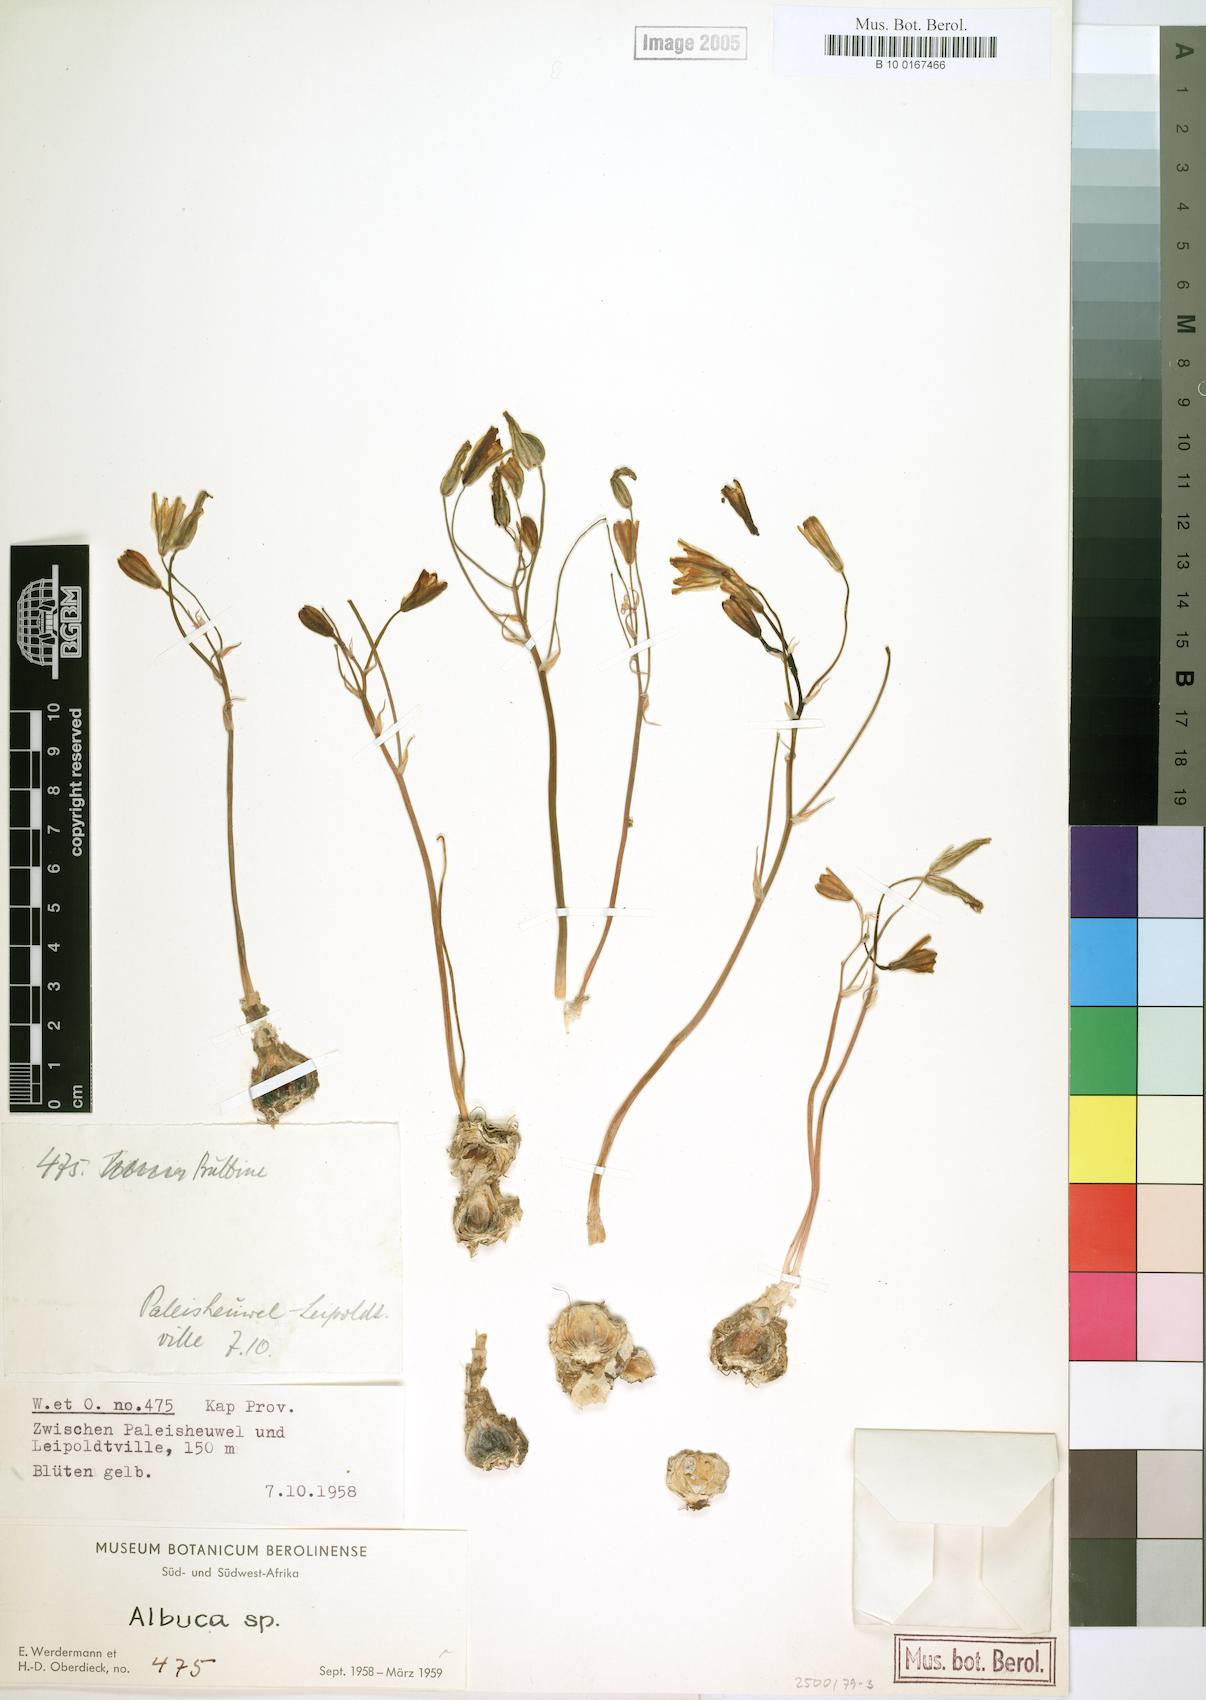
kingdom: Plantae
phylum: Tracheophyta
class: Liliopsida
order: Asparagales
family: Asparagaceae
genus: Albuca
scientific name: Albuca
